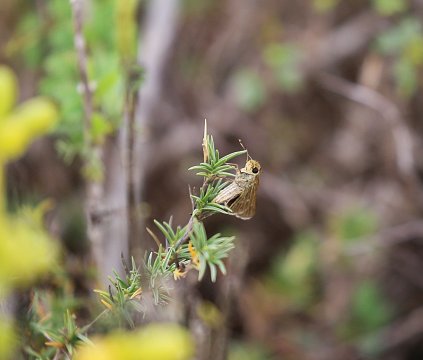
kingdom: Animalia
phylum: Arthropoda
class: Insecta
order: Lepidoptera
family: Hesperiidae
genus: Panoquina
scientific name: Panoquina panoquinoides
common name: Obscure Skipper
